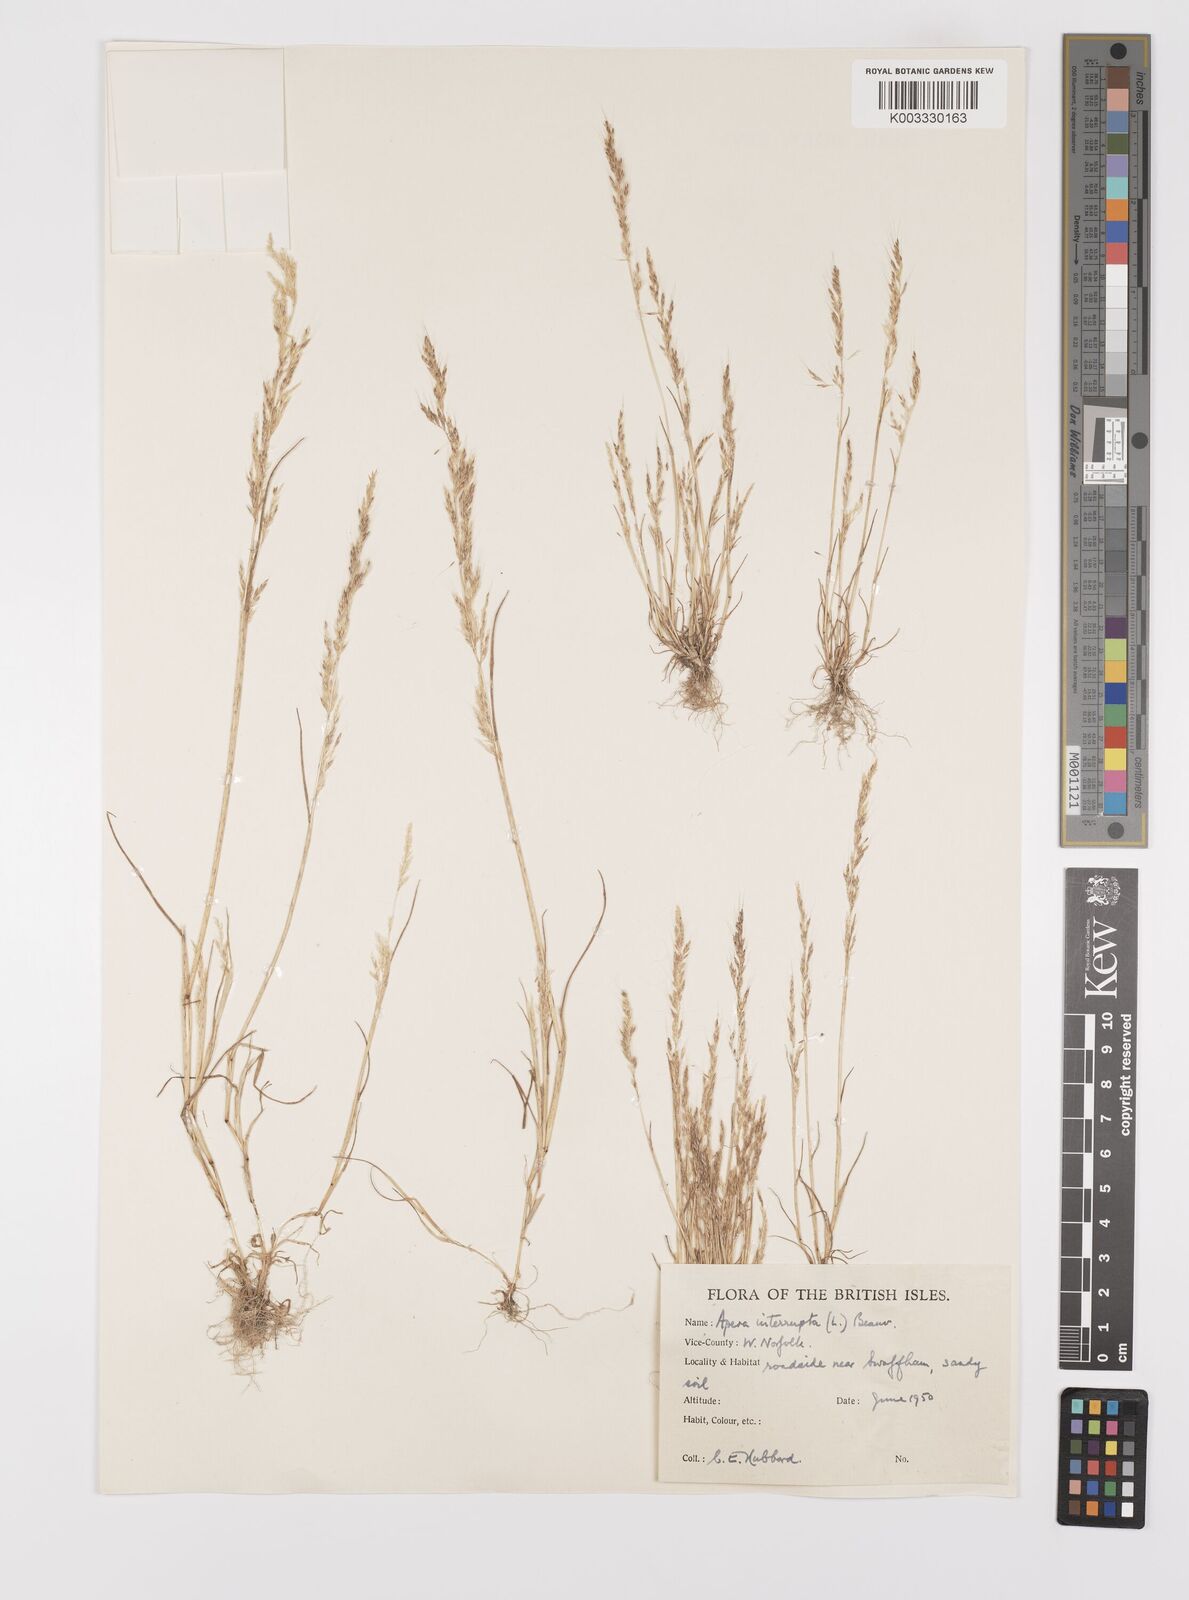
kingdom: Plantae
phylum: Tracheophyta
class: Liliopsida
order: Poales
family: Poaceae
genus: Apera
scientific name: Apera interrupta
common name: Dense silky-bent
